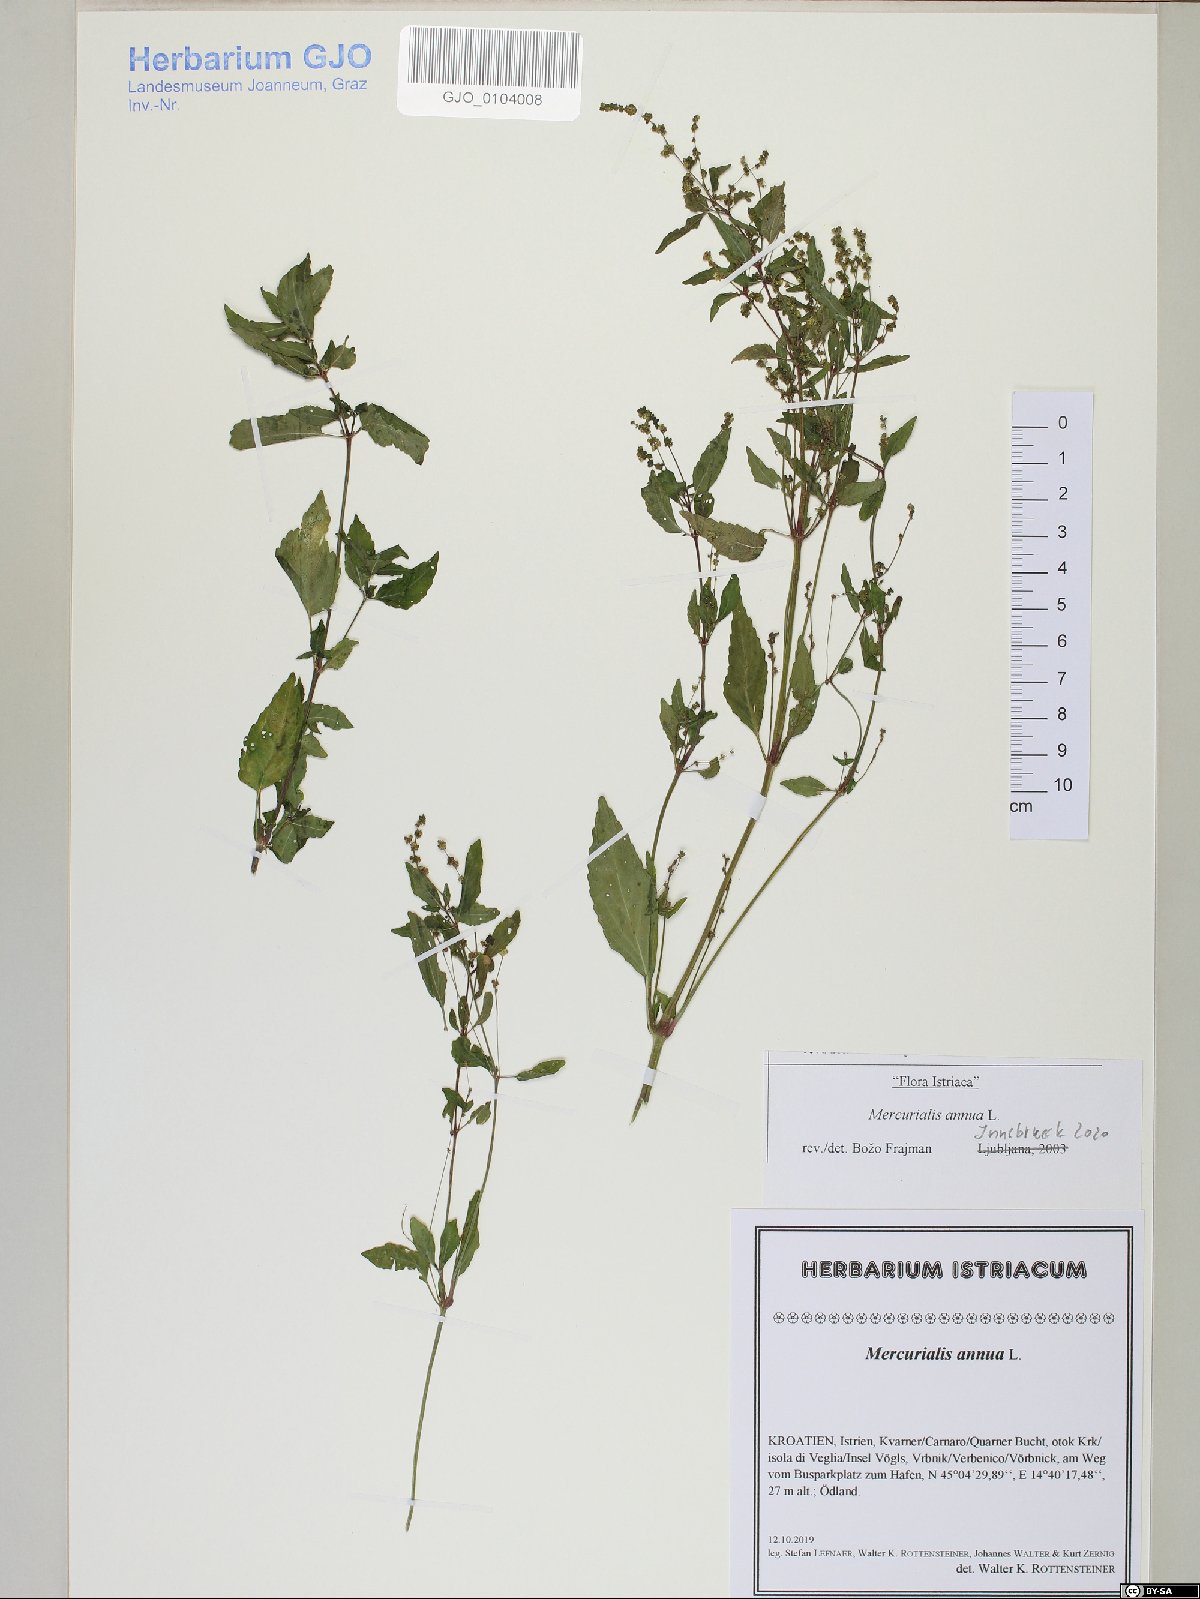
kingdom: Plantae
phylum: Tracheophyta
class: Magnoliopsida
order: Malpighiales
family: Euphorbiaceae
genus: Mercurialis
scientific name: Mercurialis annua
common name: Annual mercury
